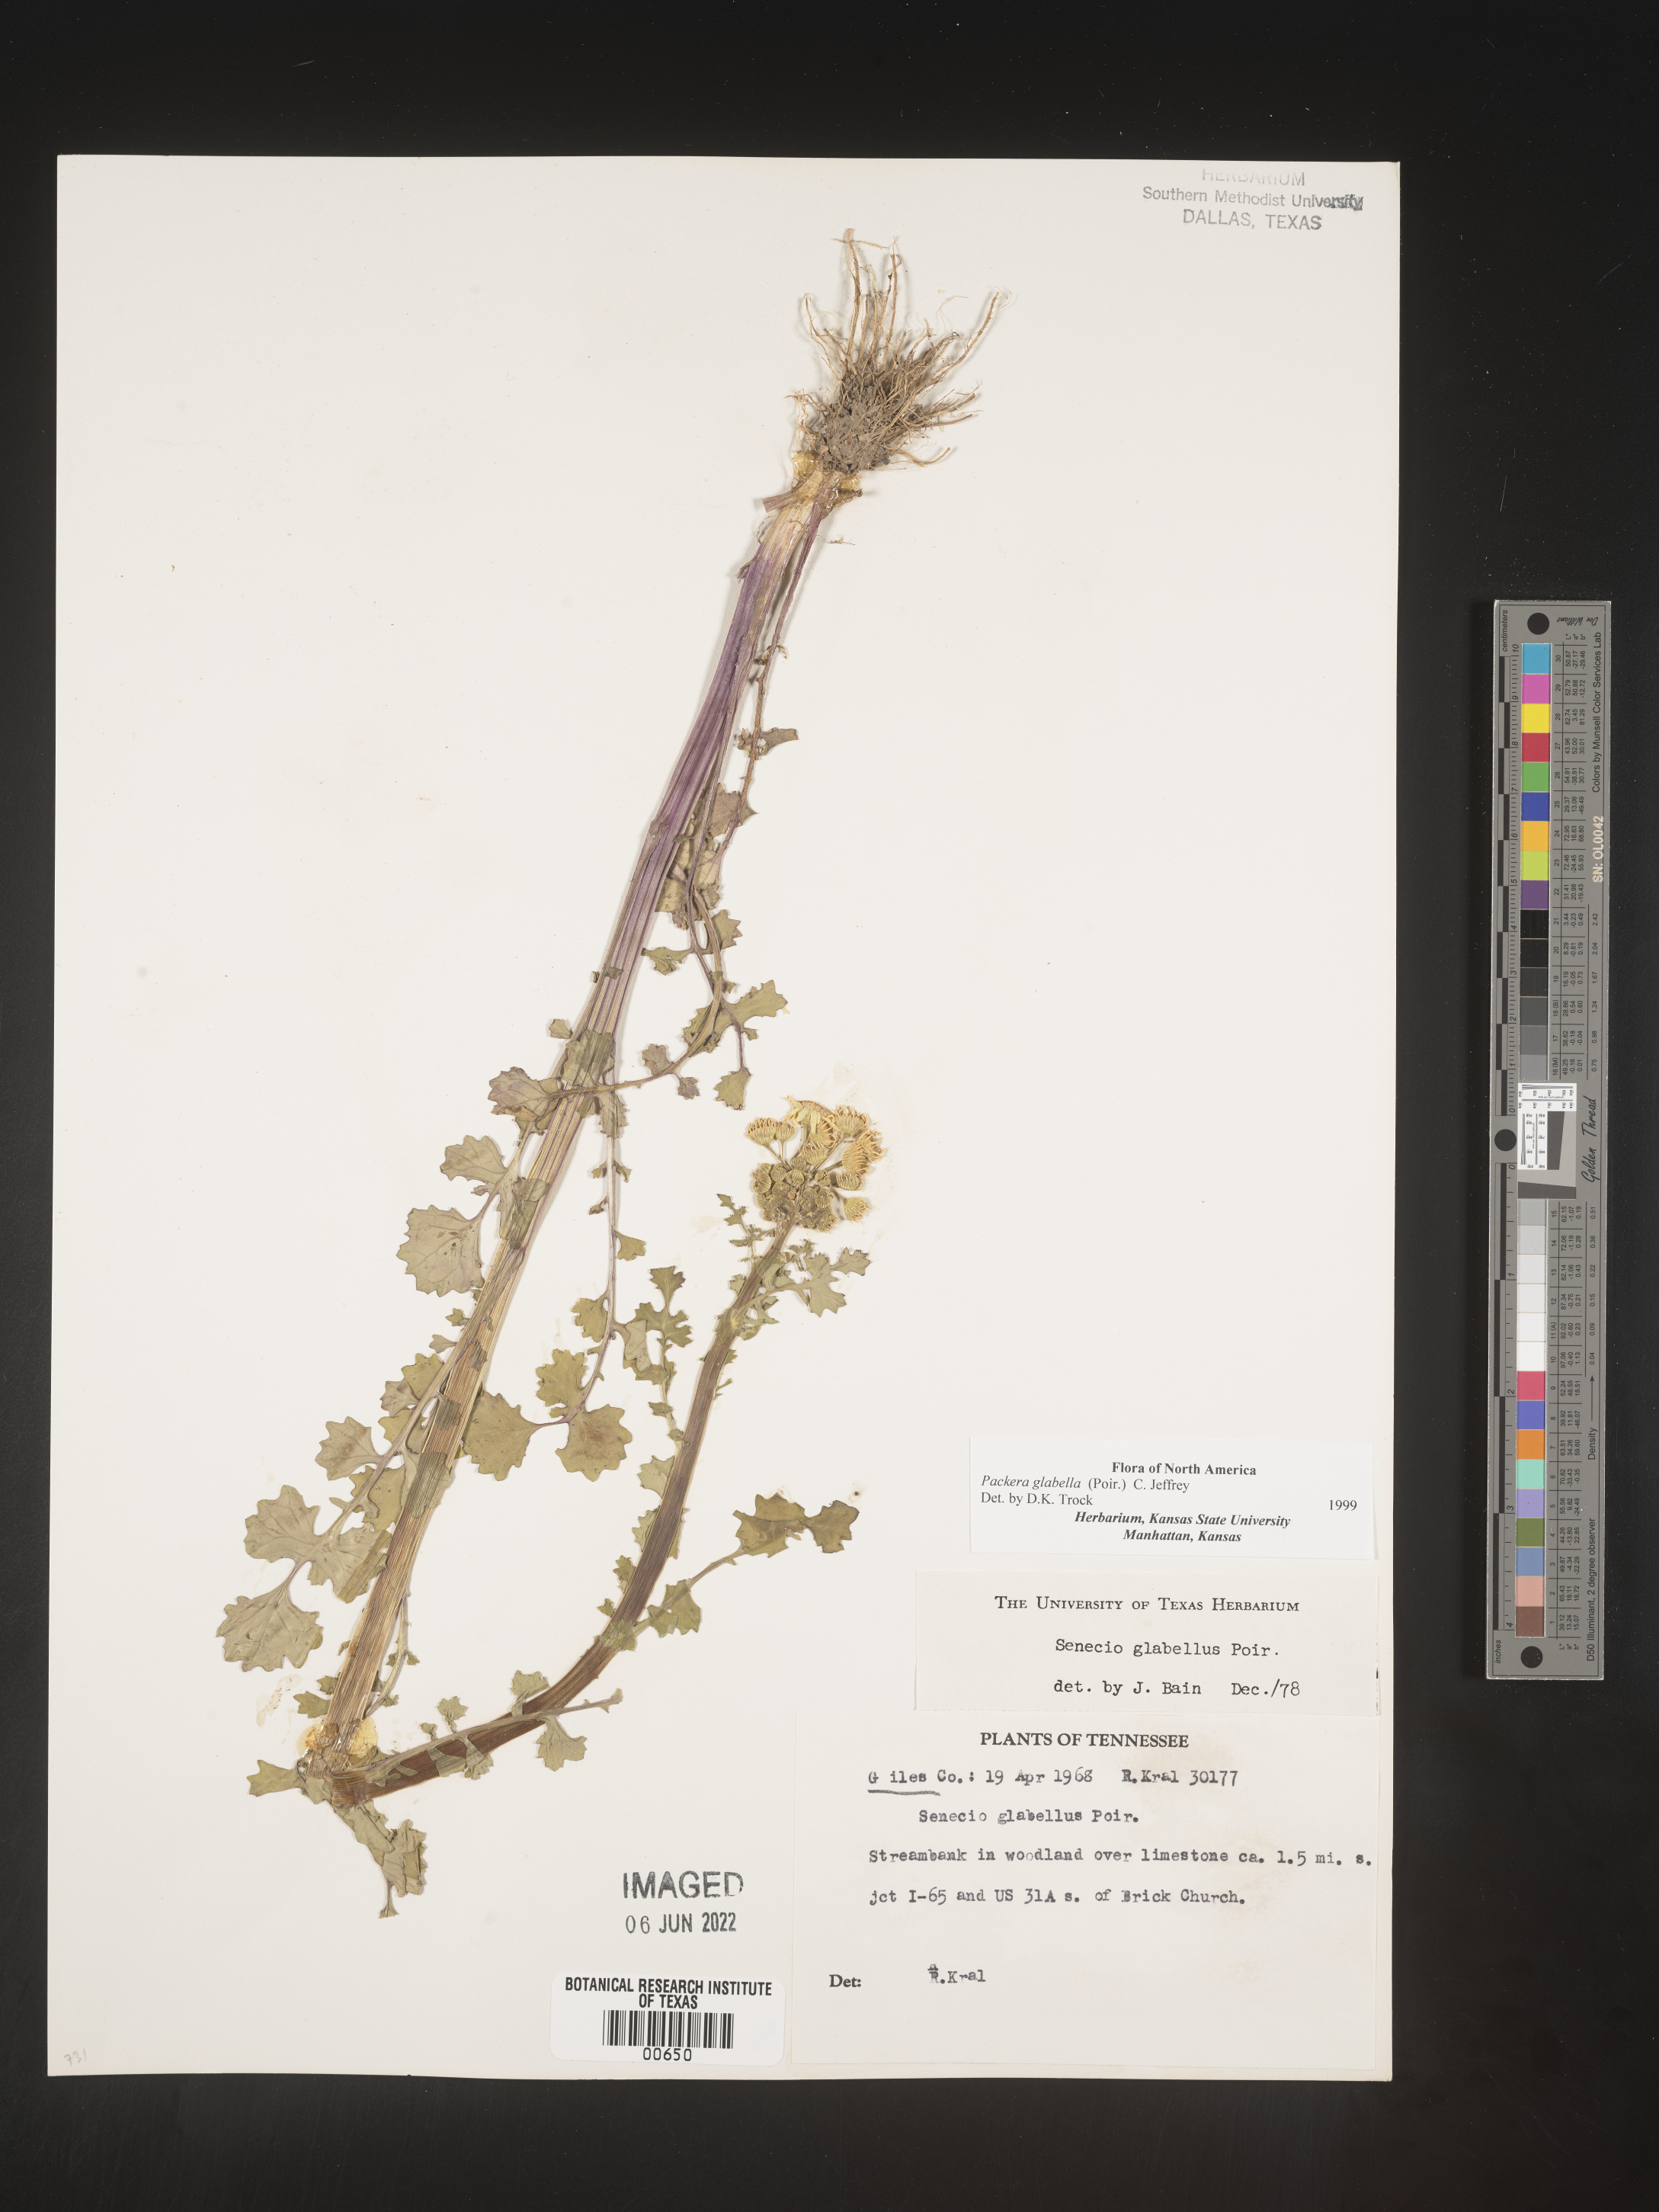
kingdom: Plantae
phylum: Tracheophyta
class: Magnoliopsida
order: Asterales
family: Asteraceae
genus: Packera
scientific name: Packera glabella
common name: Butterweed
